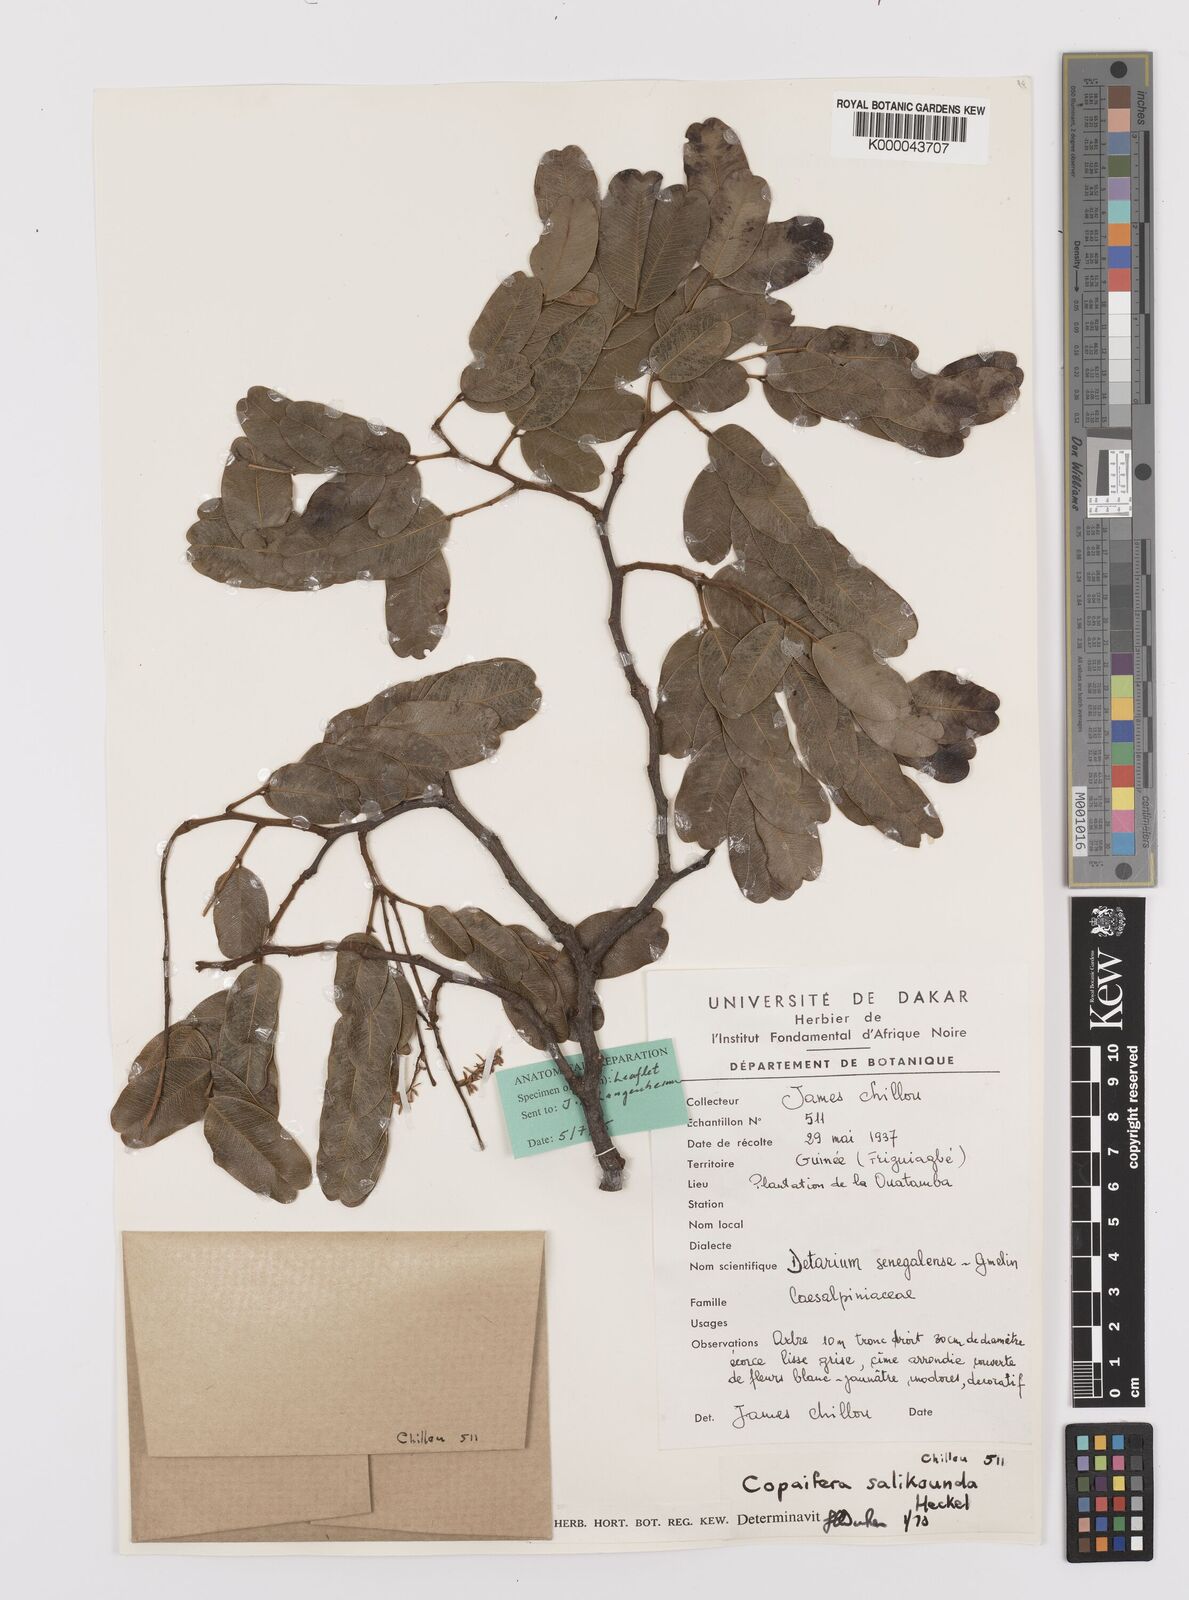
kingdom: Plantae
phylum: Tracheophyta
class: Magnoliopsida
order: Fabales
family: Fabaceae
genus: Copaifera
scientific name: Copaifera salikounda
